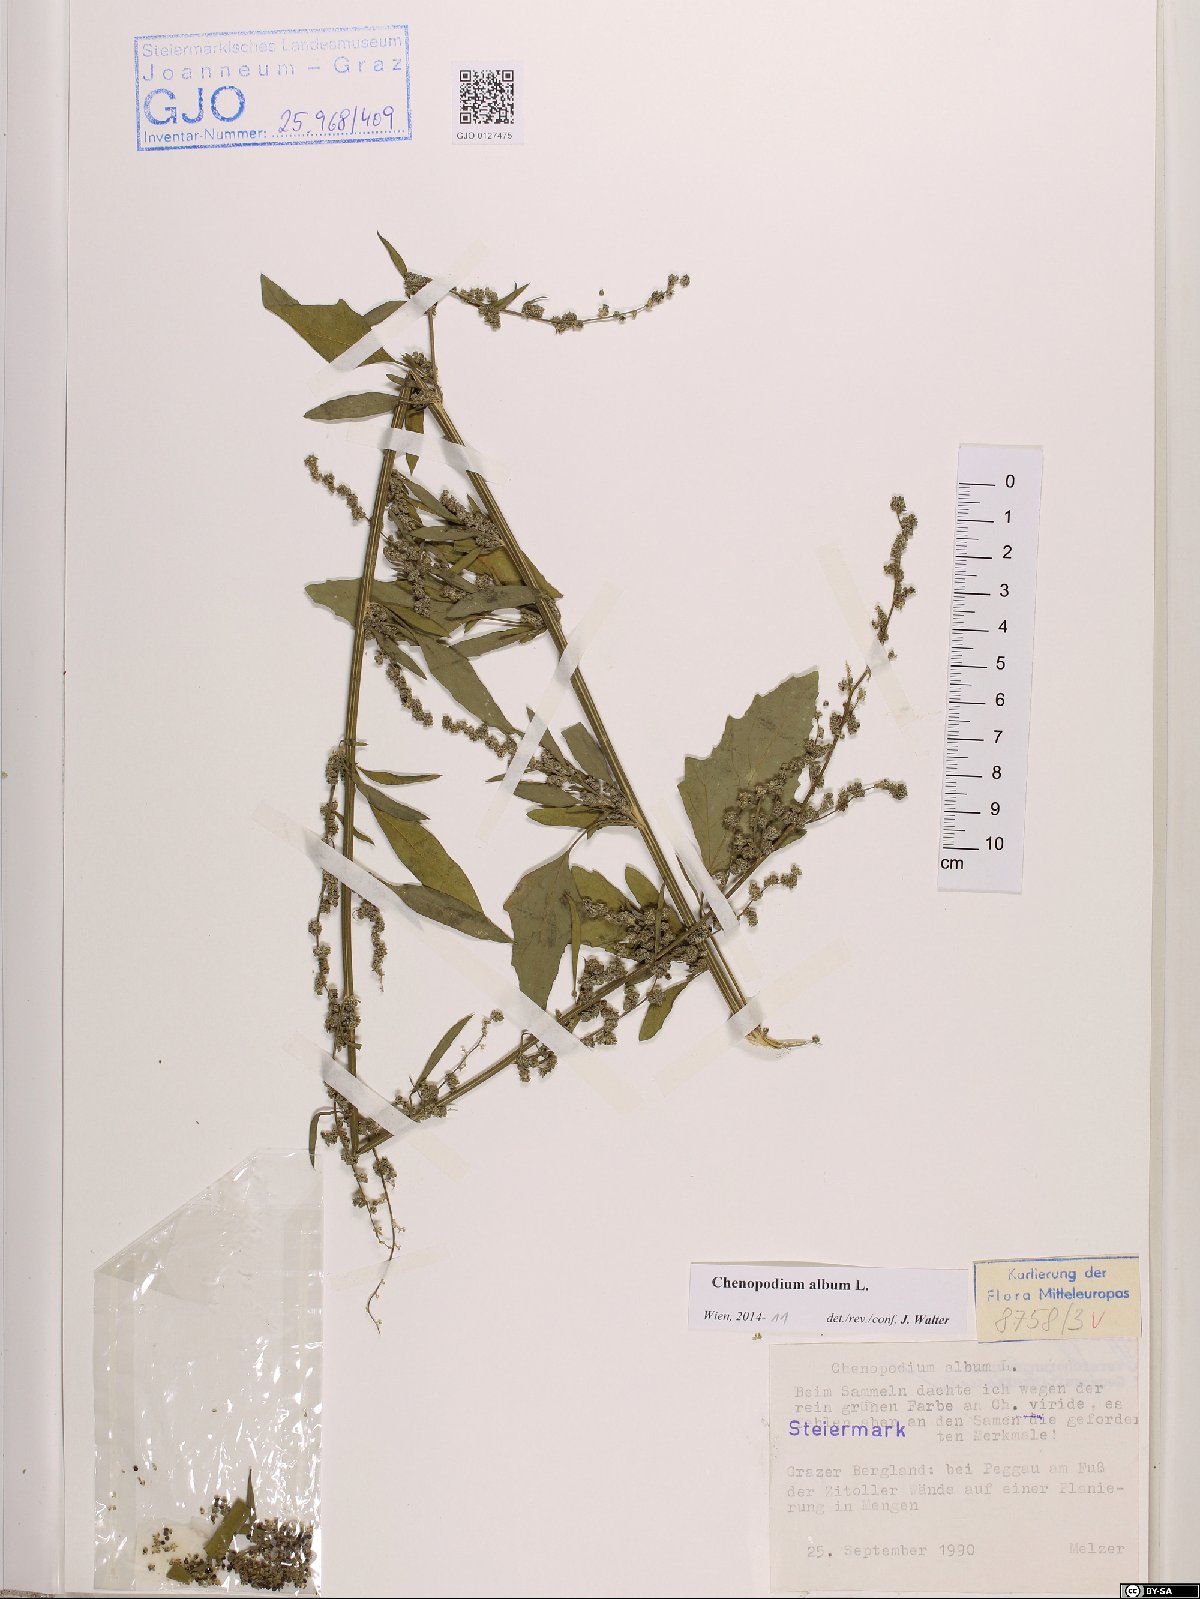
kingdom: Plantae
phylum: Tracheophyta
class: Magnoliopsida
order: Caryophyllales
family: Amaranthaceae
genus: Chenopodium
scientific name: Chenopodium album
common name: Fat-hen
